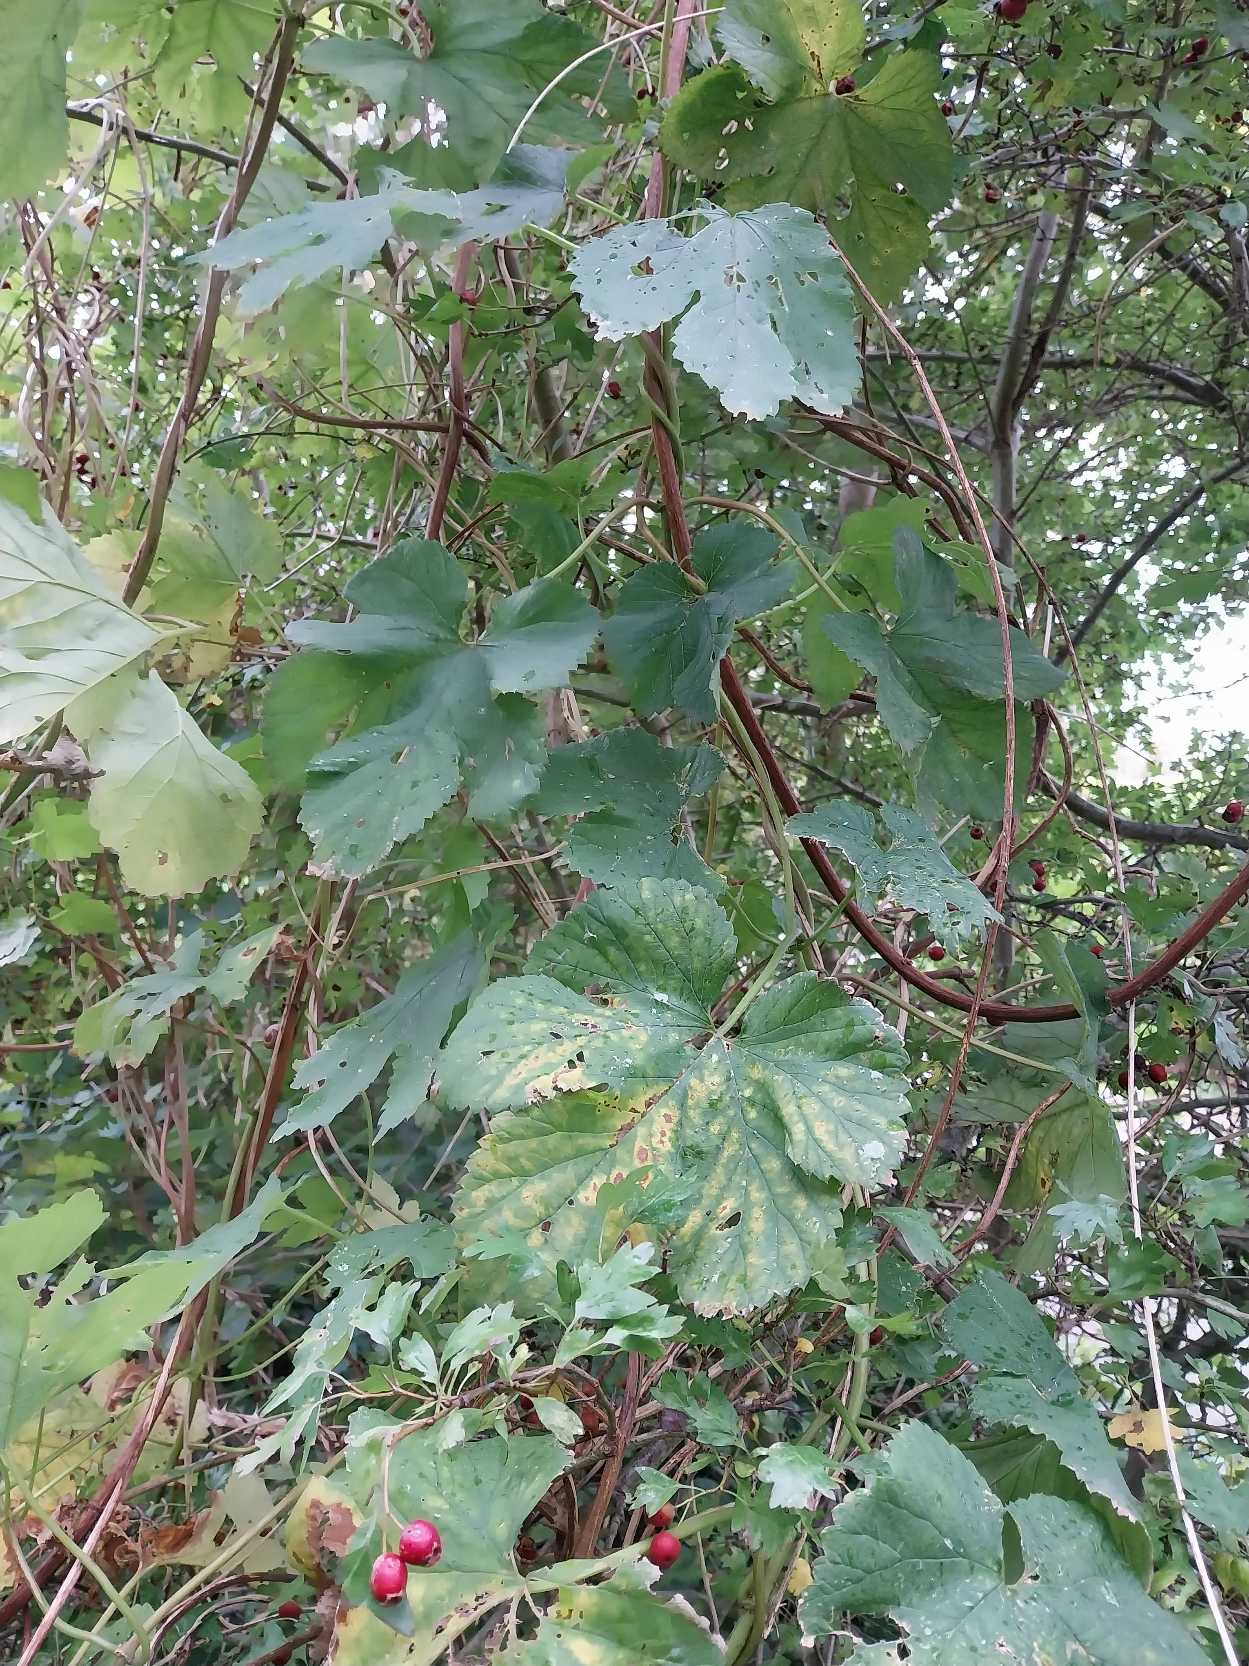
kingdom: Plantae
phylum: Tracheophyta
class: Magnoliopsida
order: Rosales
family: Cannabaceae
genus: Humulus
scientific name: Humulus lupulus
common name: Humle
